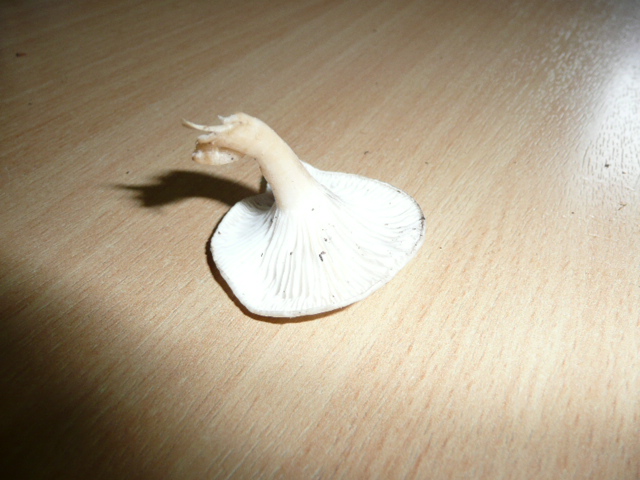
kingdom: Fungi
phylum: Basidiomycota
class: Agaricomycetes
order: Agaricales
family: Tricholomataceae
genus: Leucocybe
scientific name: Leucocybe candicans
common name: kridt-tragthat
